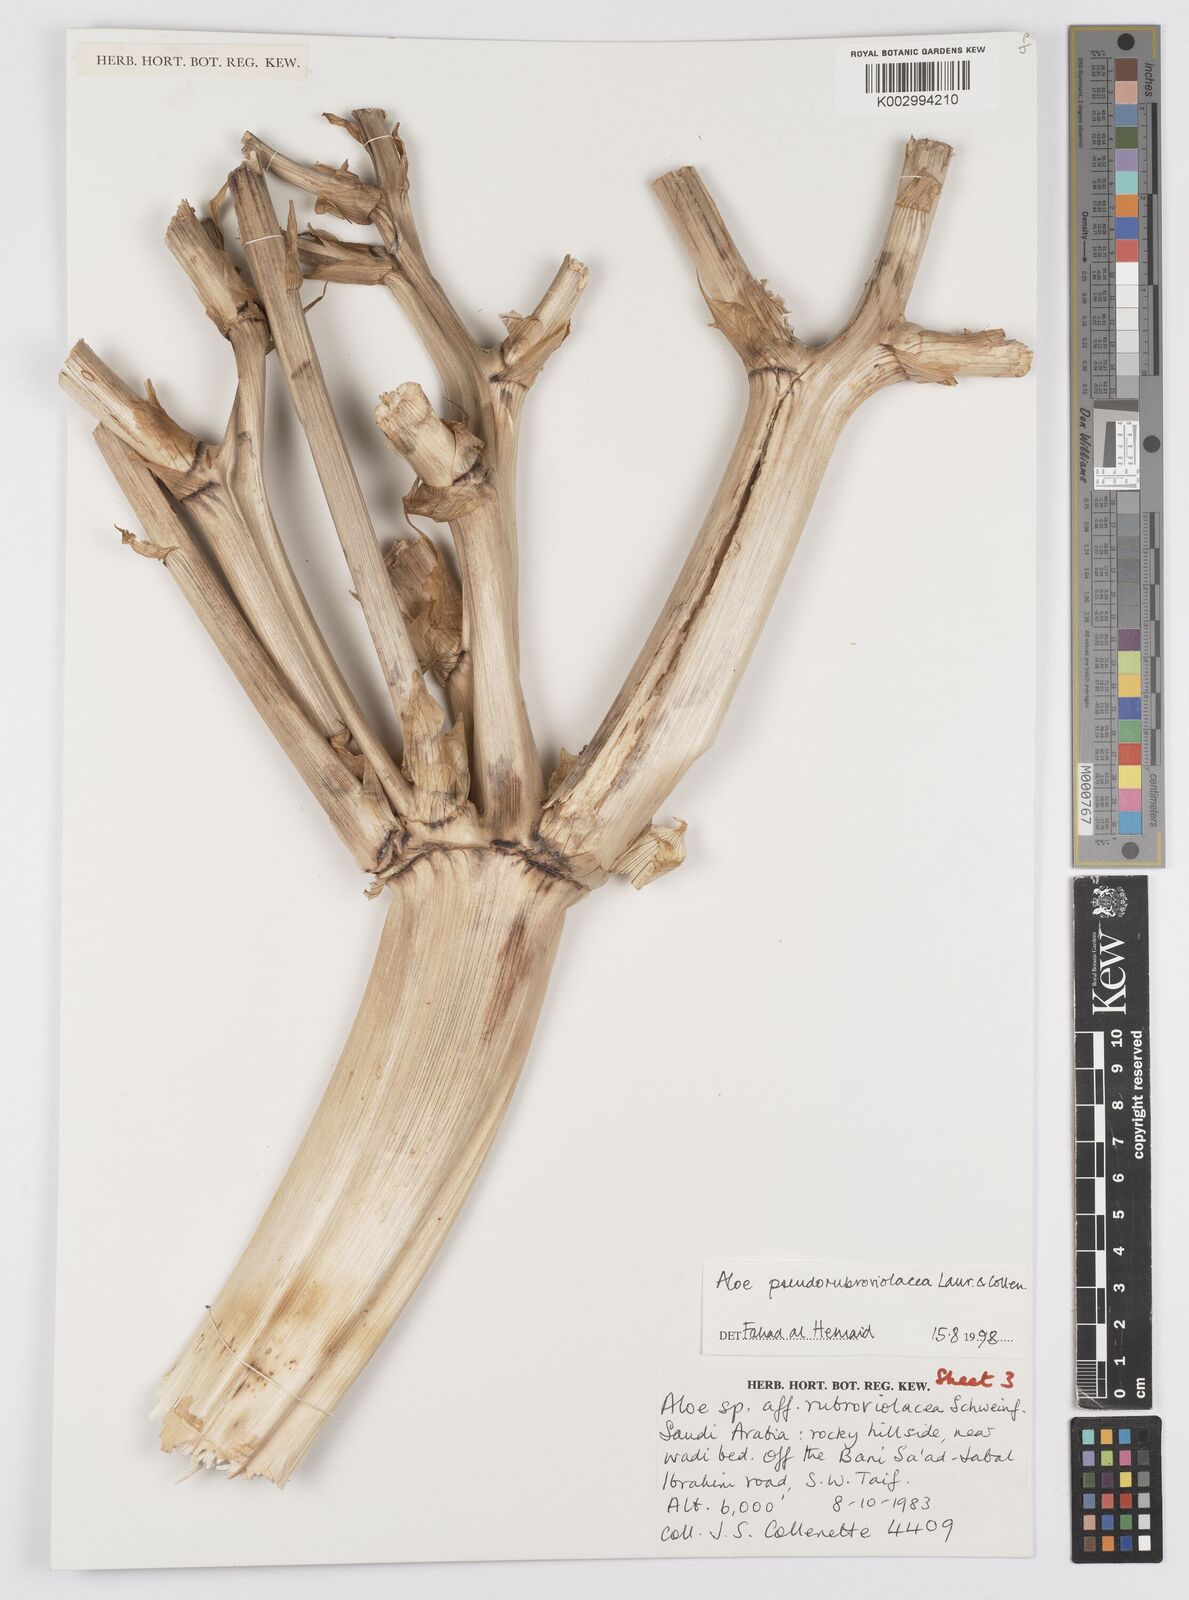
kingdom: Plantae
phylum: Tracheophyta
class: Liliopsida
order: Asparagales
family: Asphodelaceae
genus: Aloe
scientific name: Aloe pseudorubroviolacea
